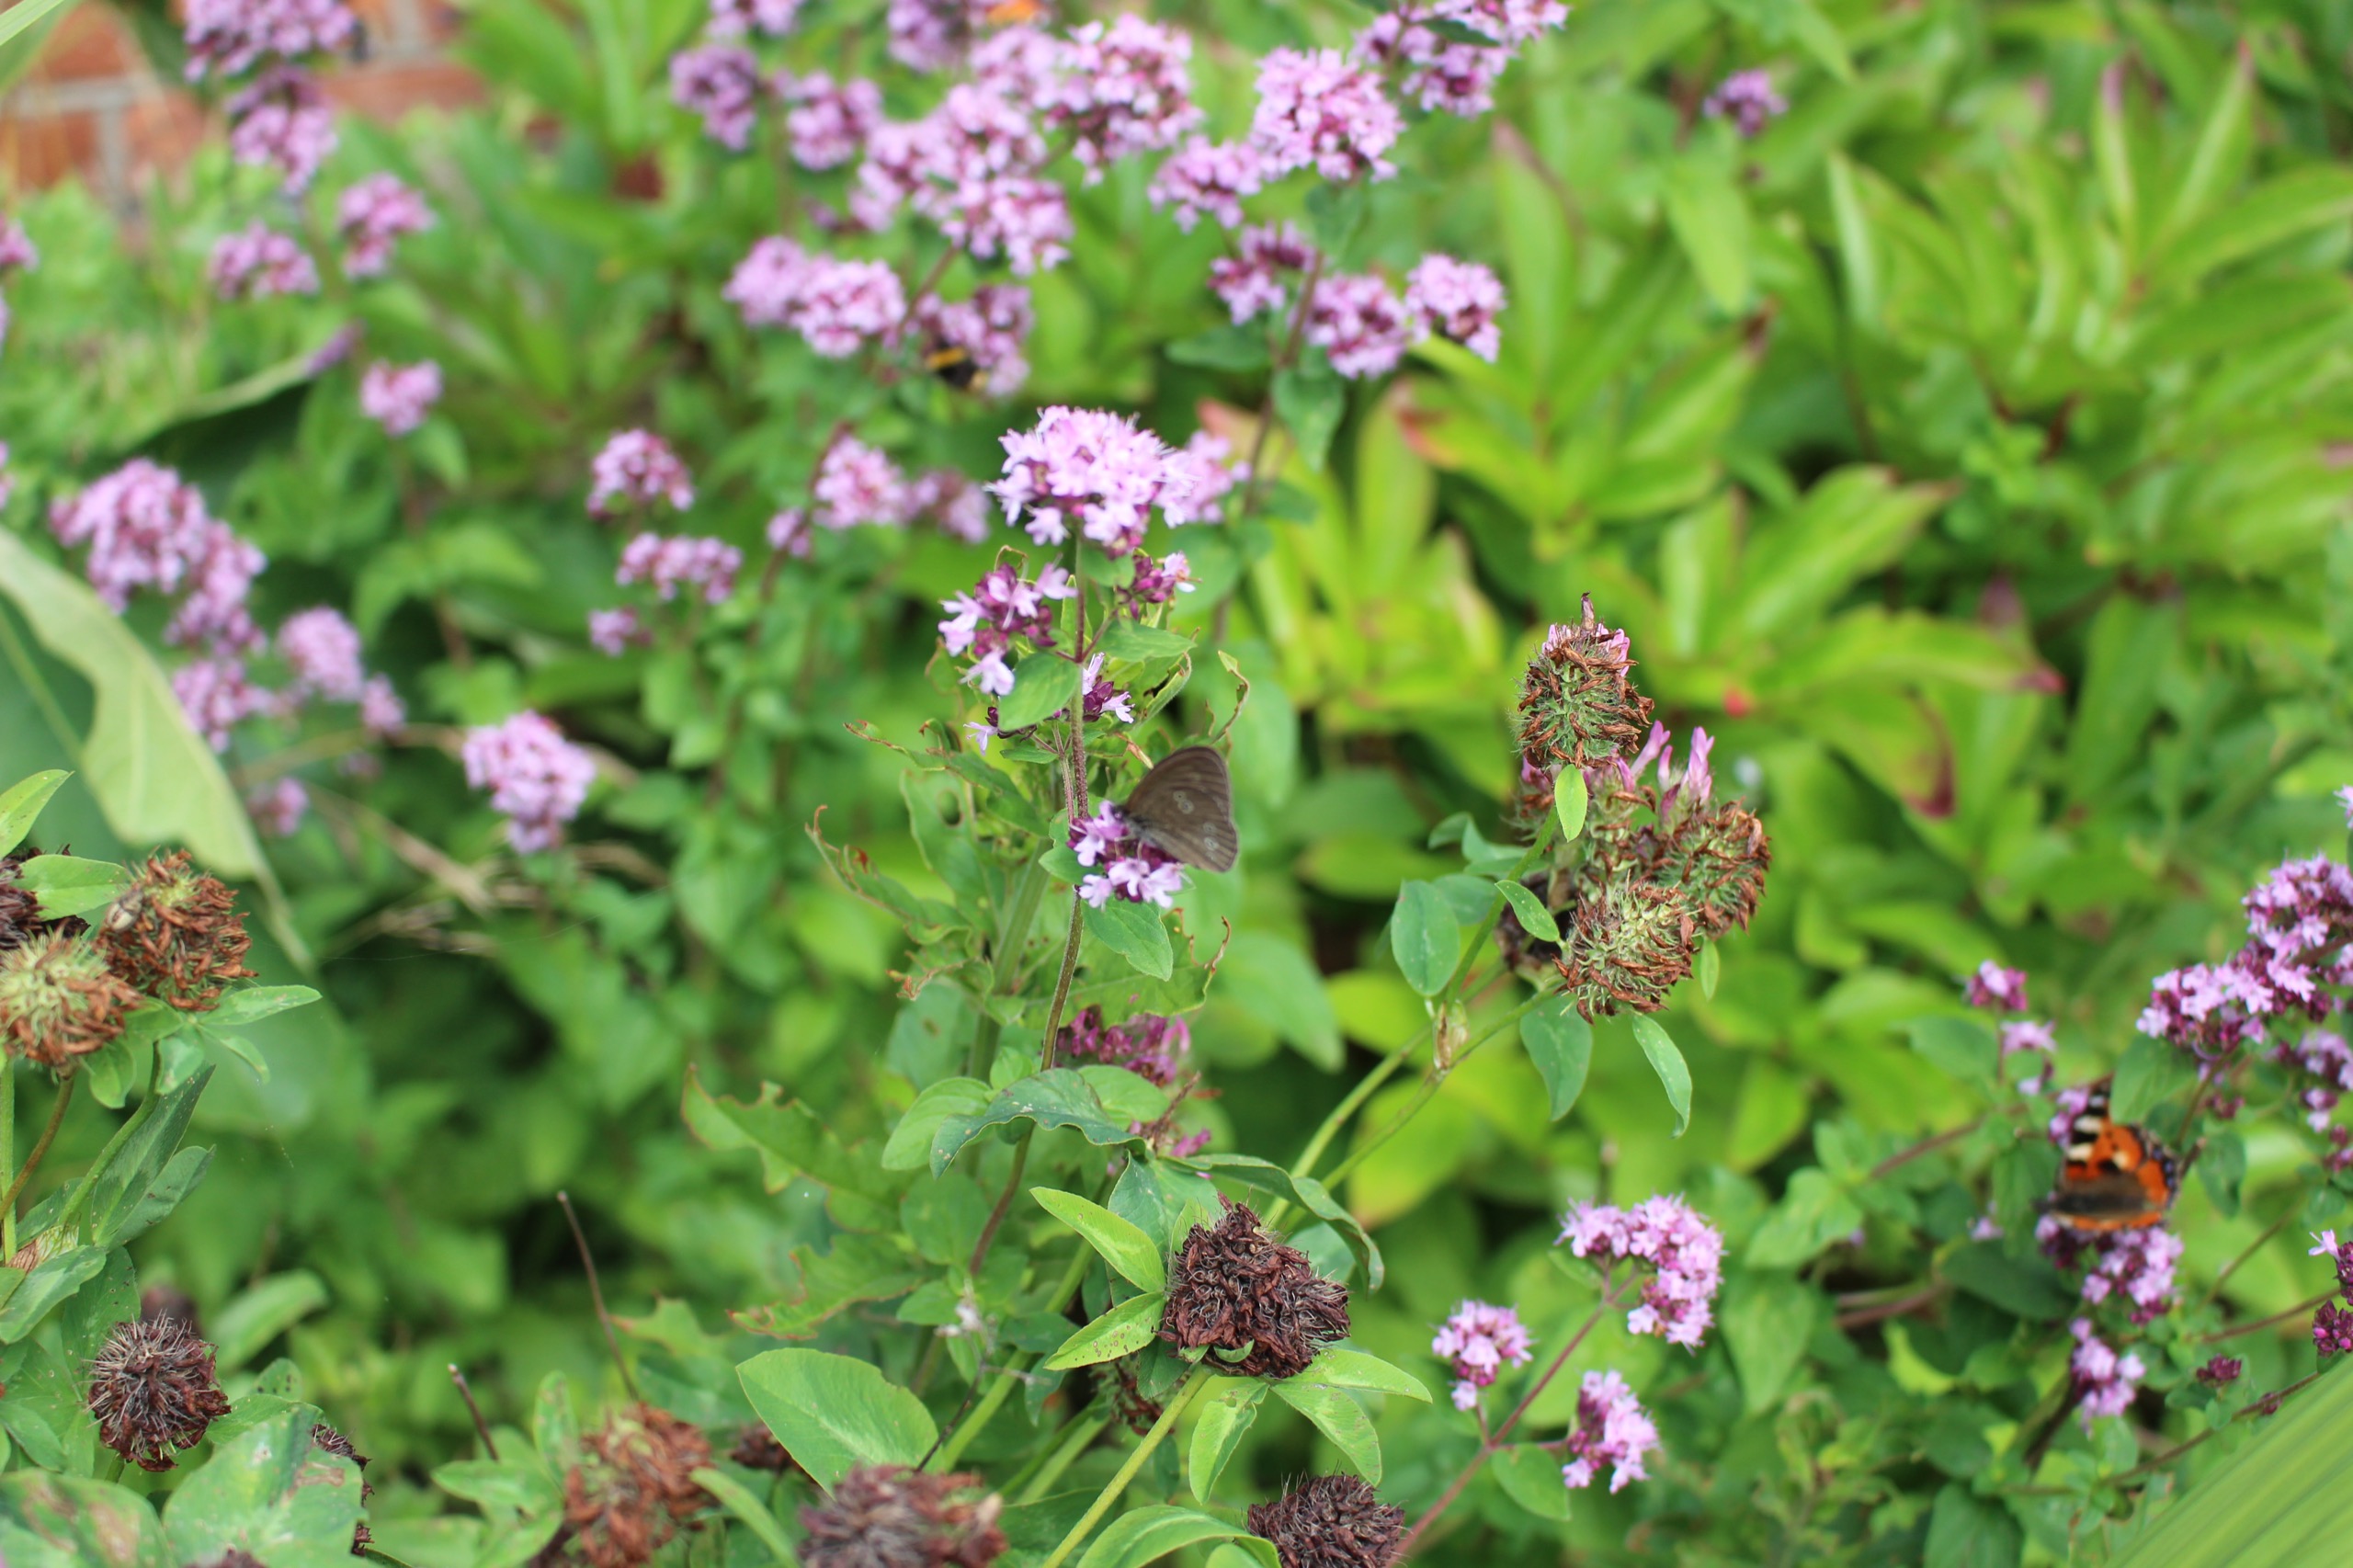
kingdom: Animalia
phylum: Arthropoda
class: Insecta
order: Lepidoptera
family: Nymphalidae
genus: Aphantopus
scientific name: Aphantopus hyperantus
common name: Engrandøje
